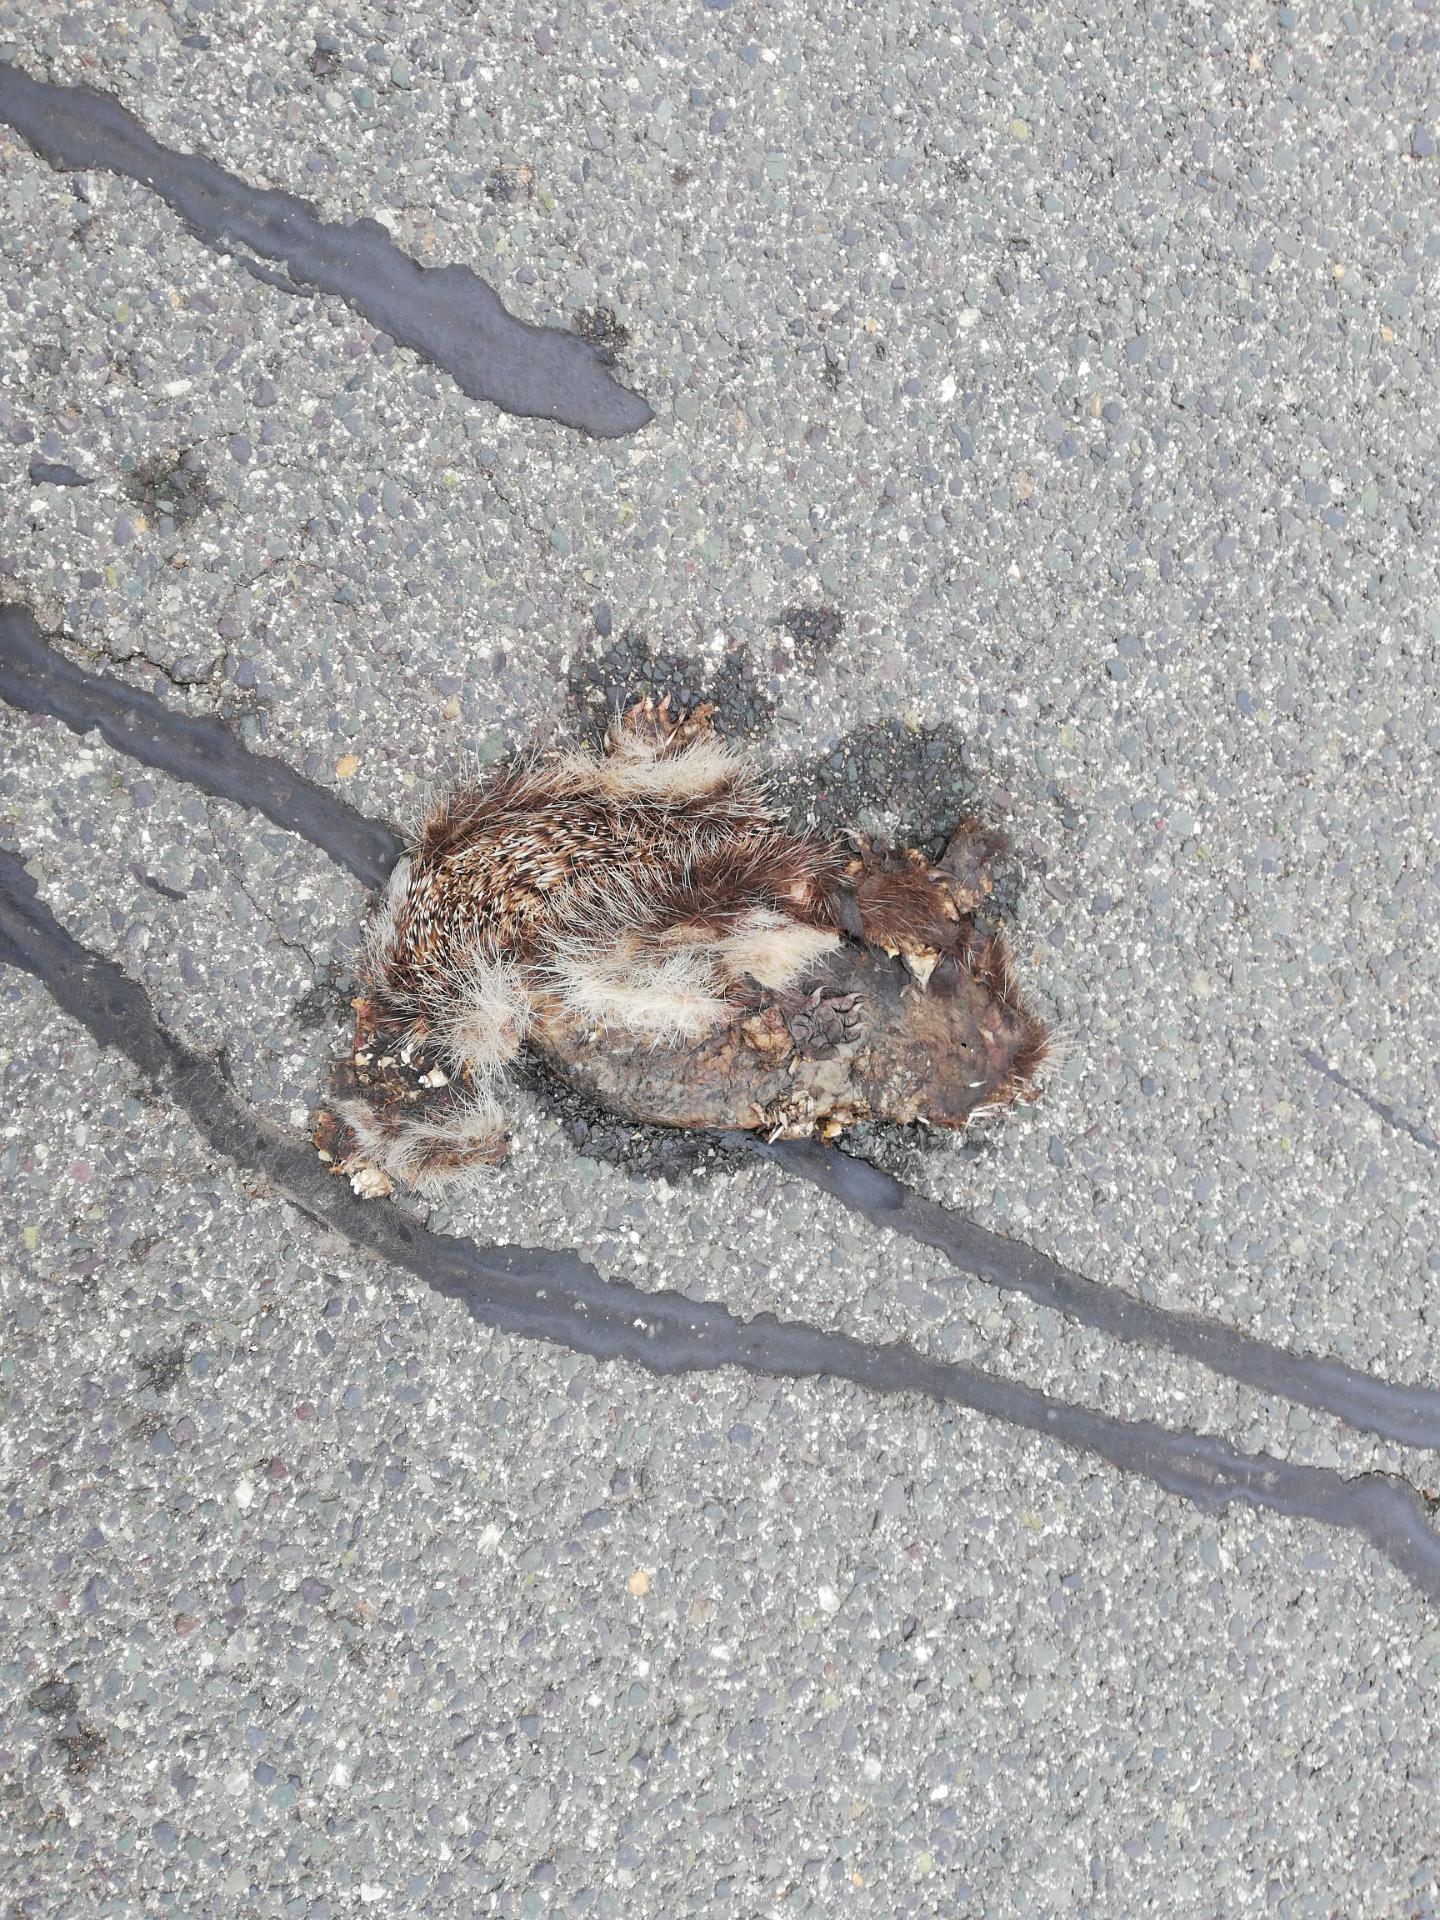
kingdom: Animalia
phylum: Chordata
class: Mammalia
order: Erinaceomorpha
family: Erinaceidae
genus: Erinaceus
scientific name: Erinaceus
